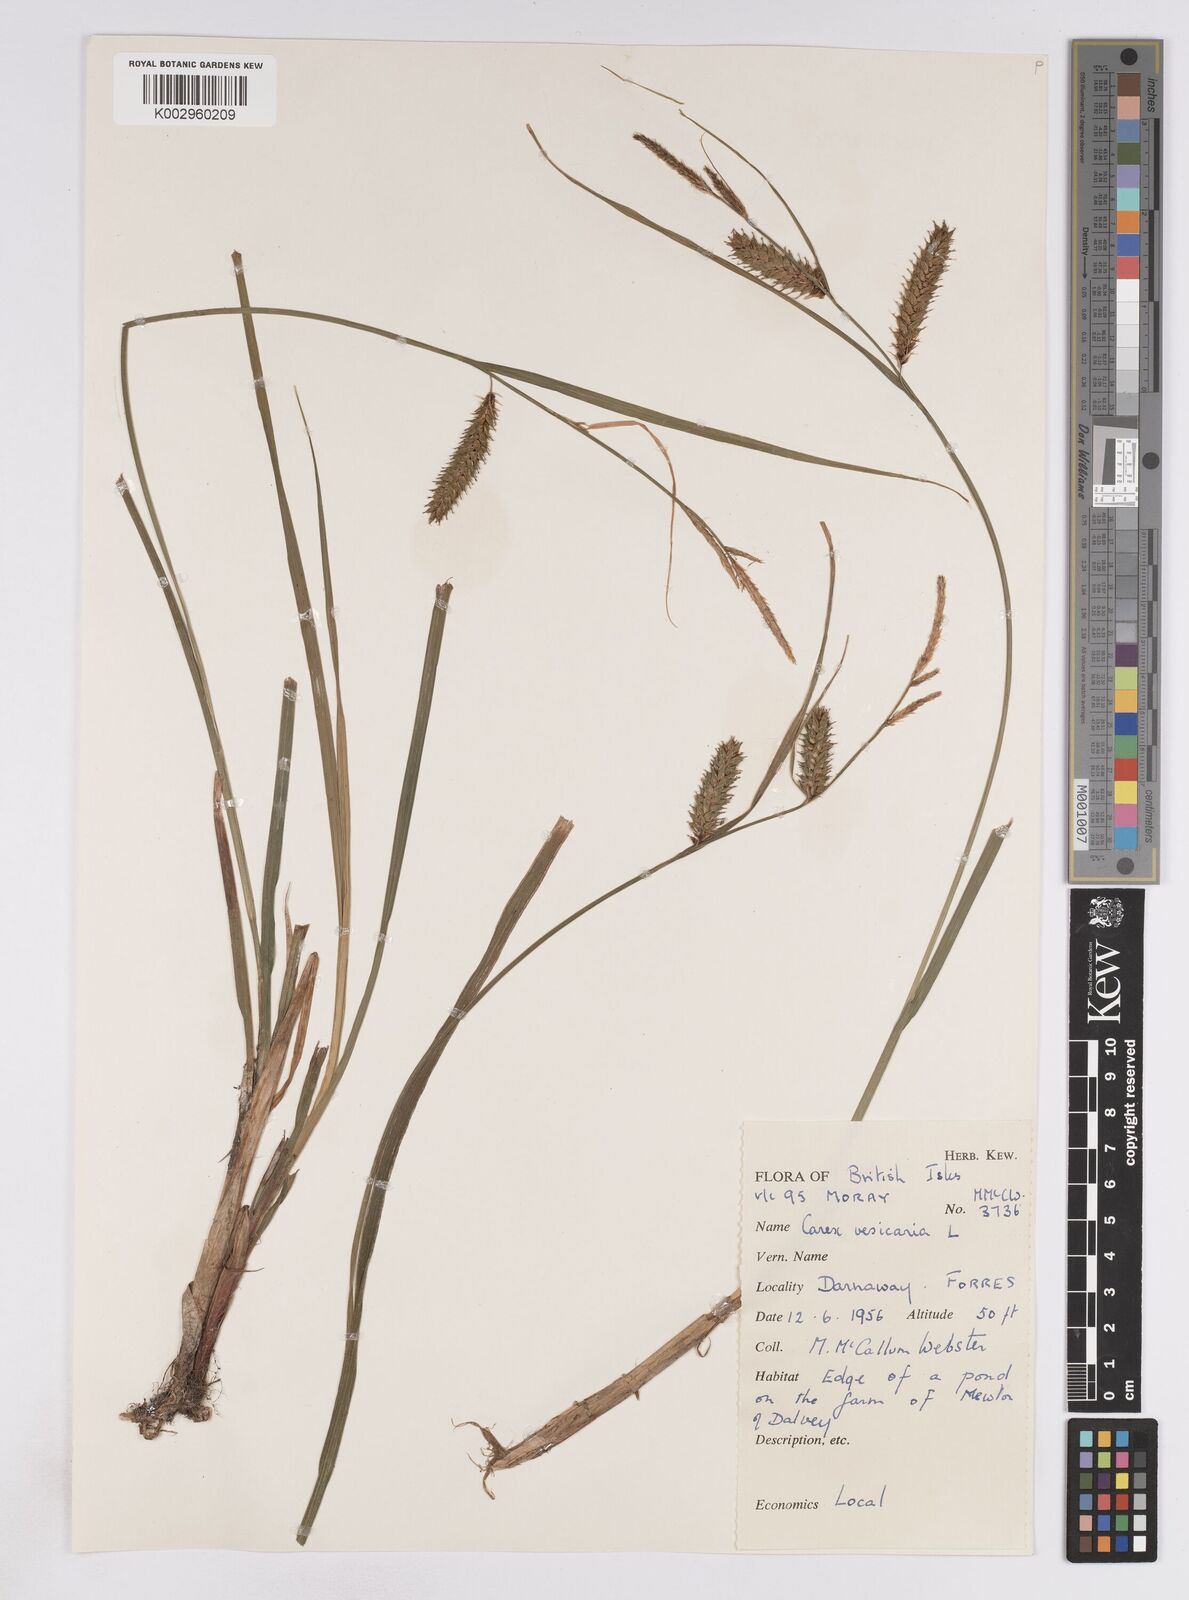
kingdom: Plantae
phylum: Tracheophyta
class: Liliopsida
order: Poales
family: Cyperaceae
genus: Carex
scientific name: Carex vesicaria
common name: Bladder-sedge
